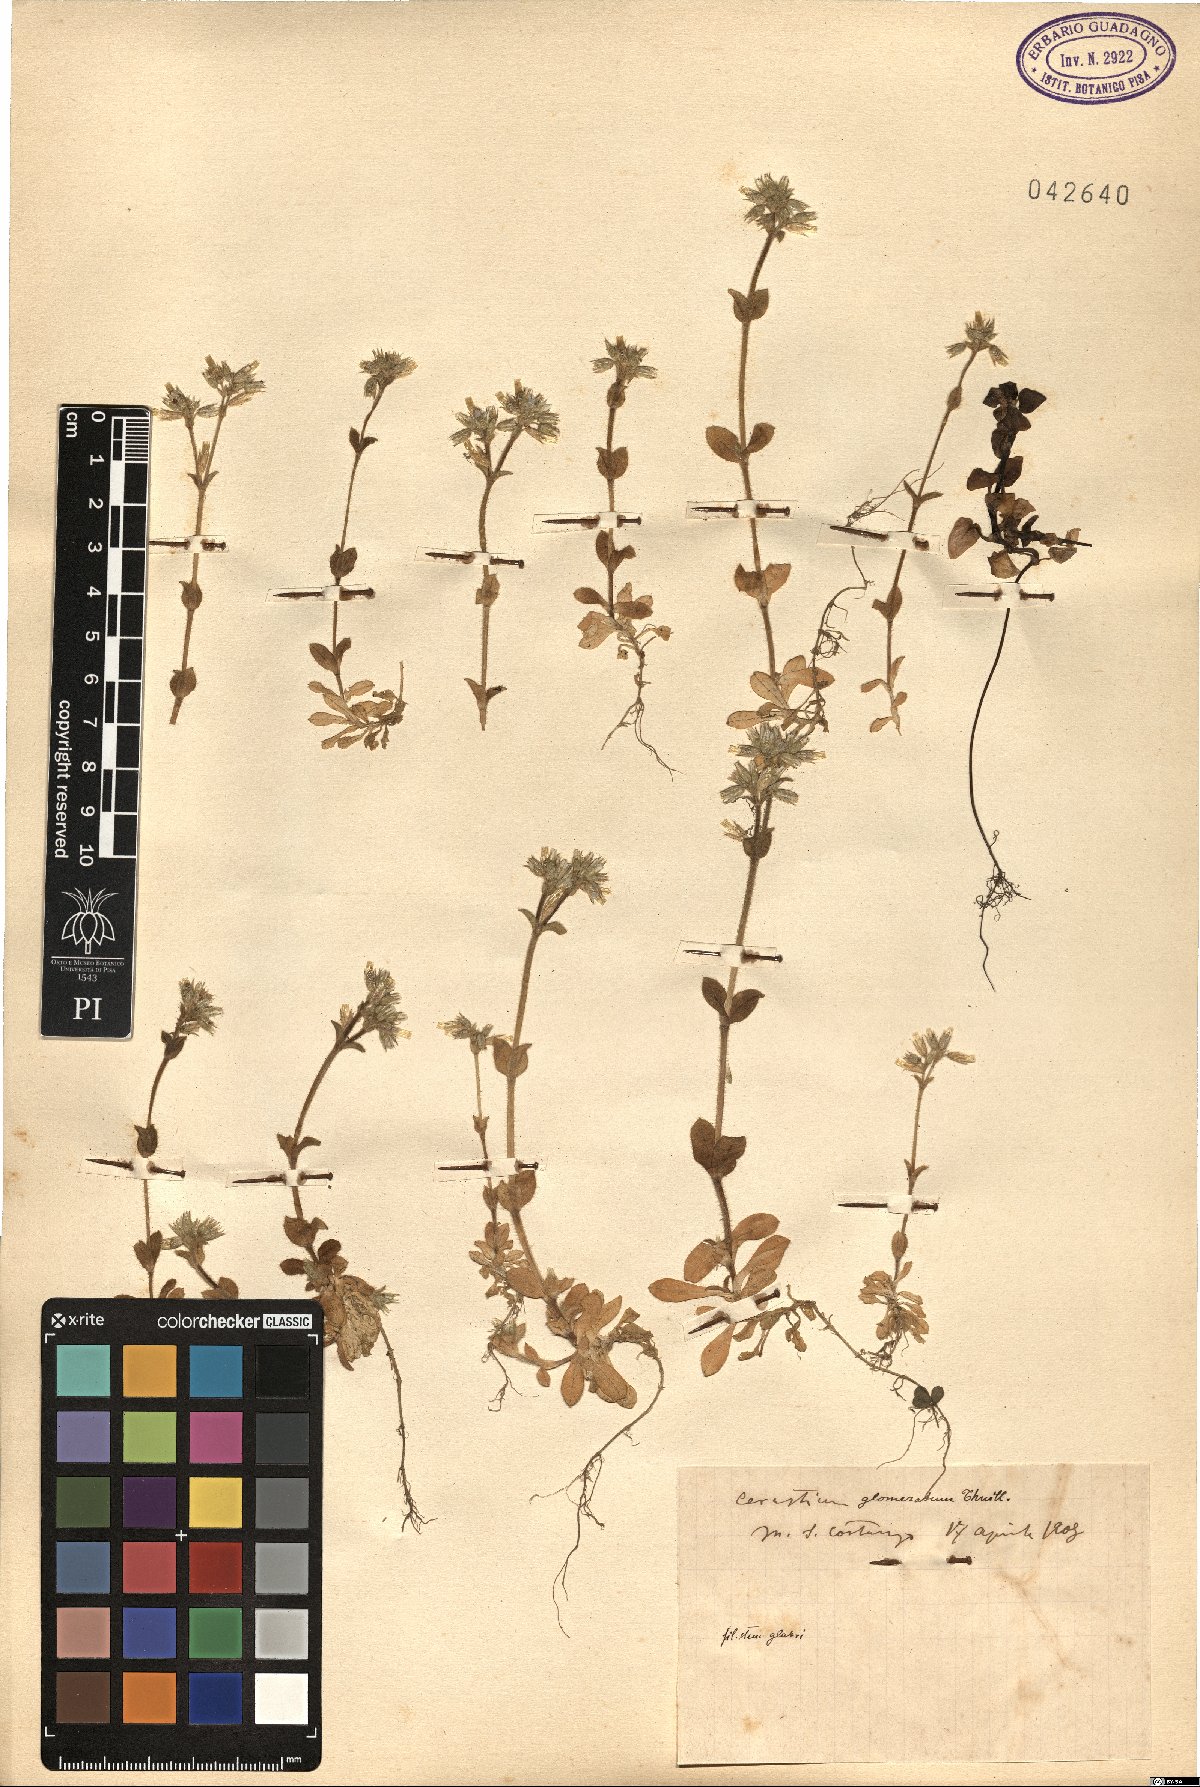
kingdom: Plantae
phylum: Tracheophyta
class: Magnoliopsida
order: Caryophyllales
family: Caryophyllaceae
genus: Cerastium
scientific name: Cerastium glomeratum
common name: Sticky chickweed
